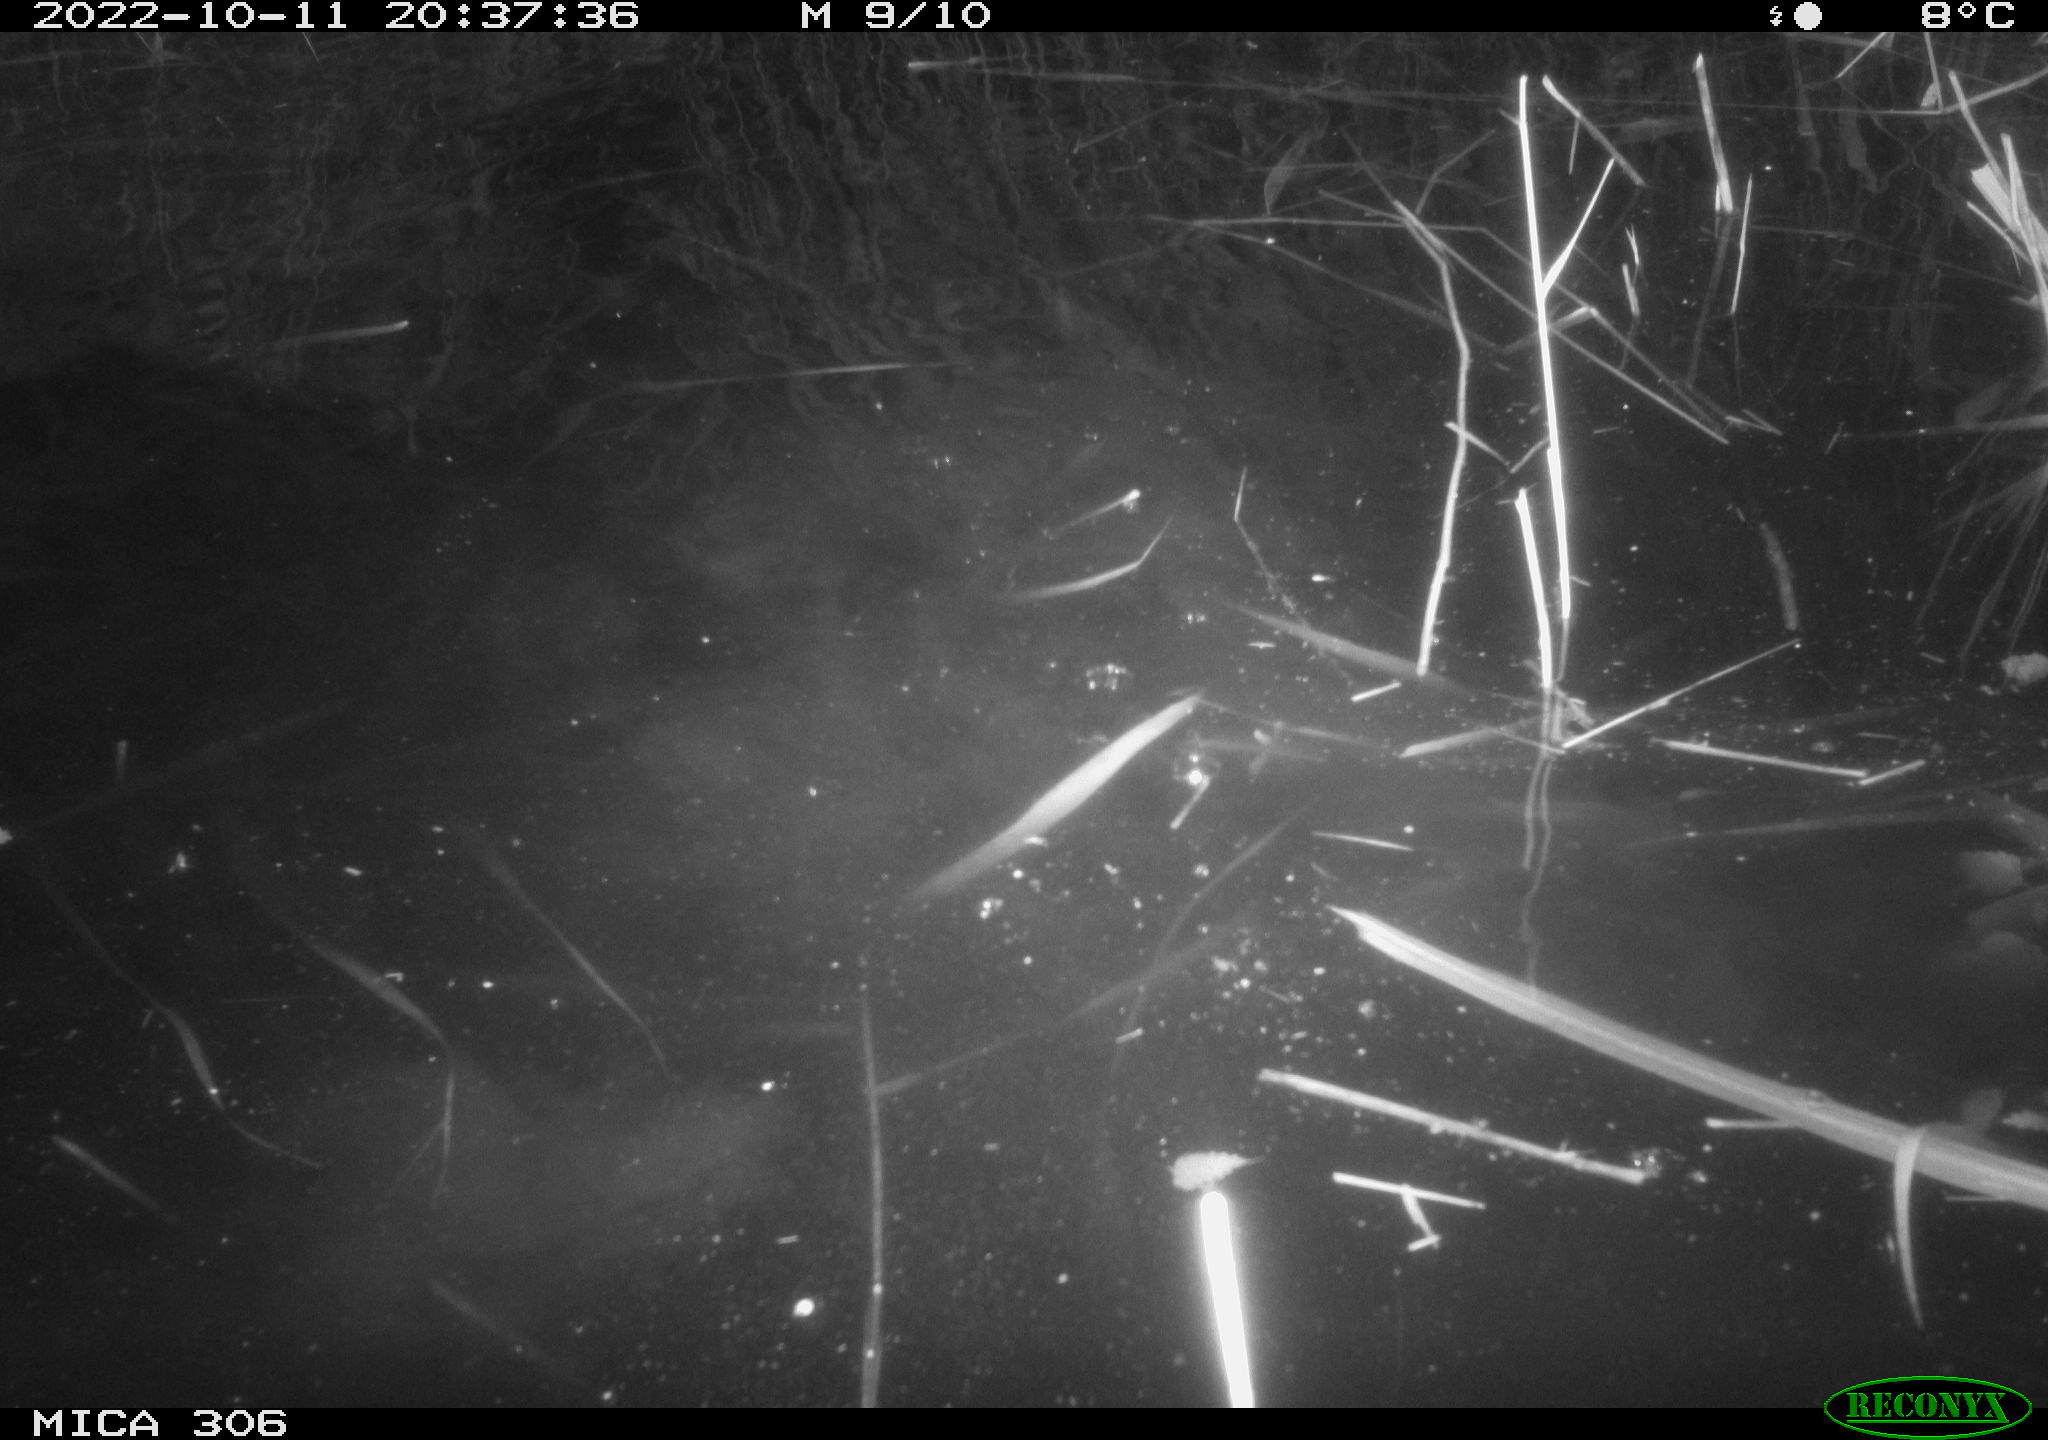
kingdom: Animalia
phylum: Chordata
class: Mammalia
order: Rodentia
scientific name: Rodentia
